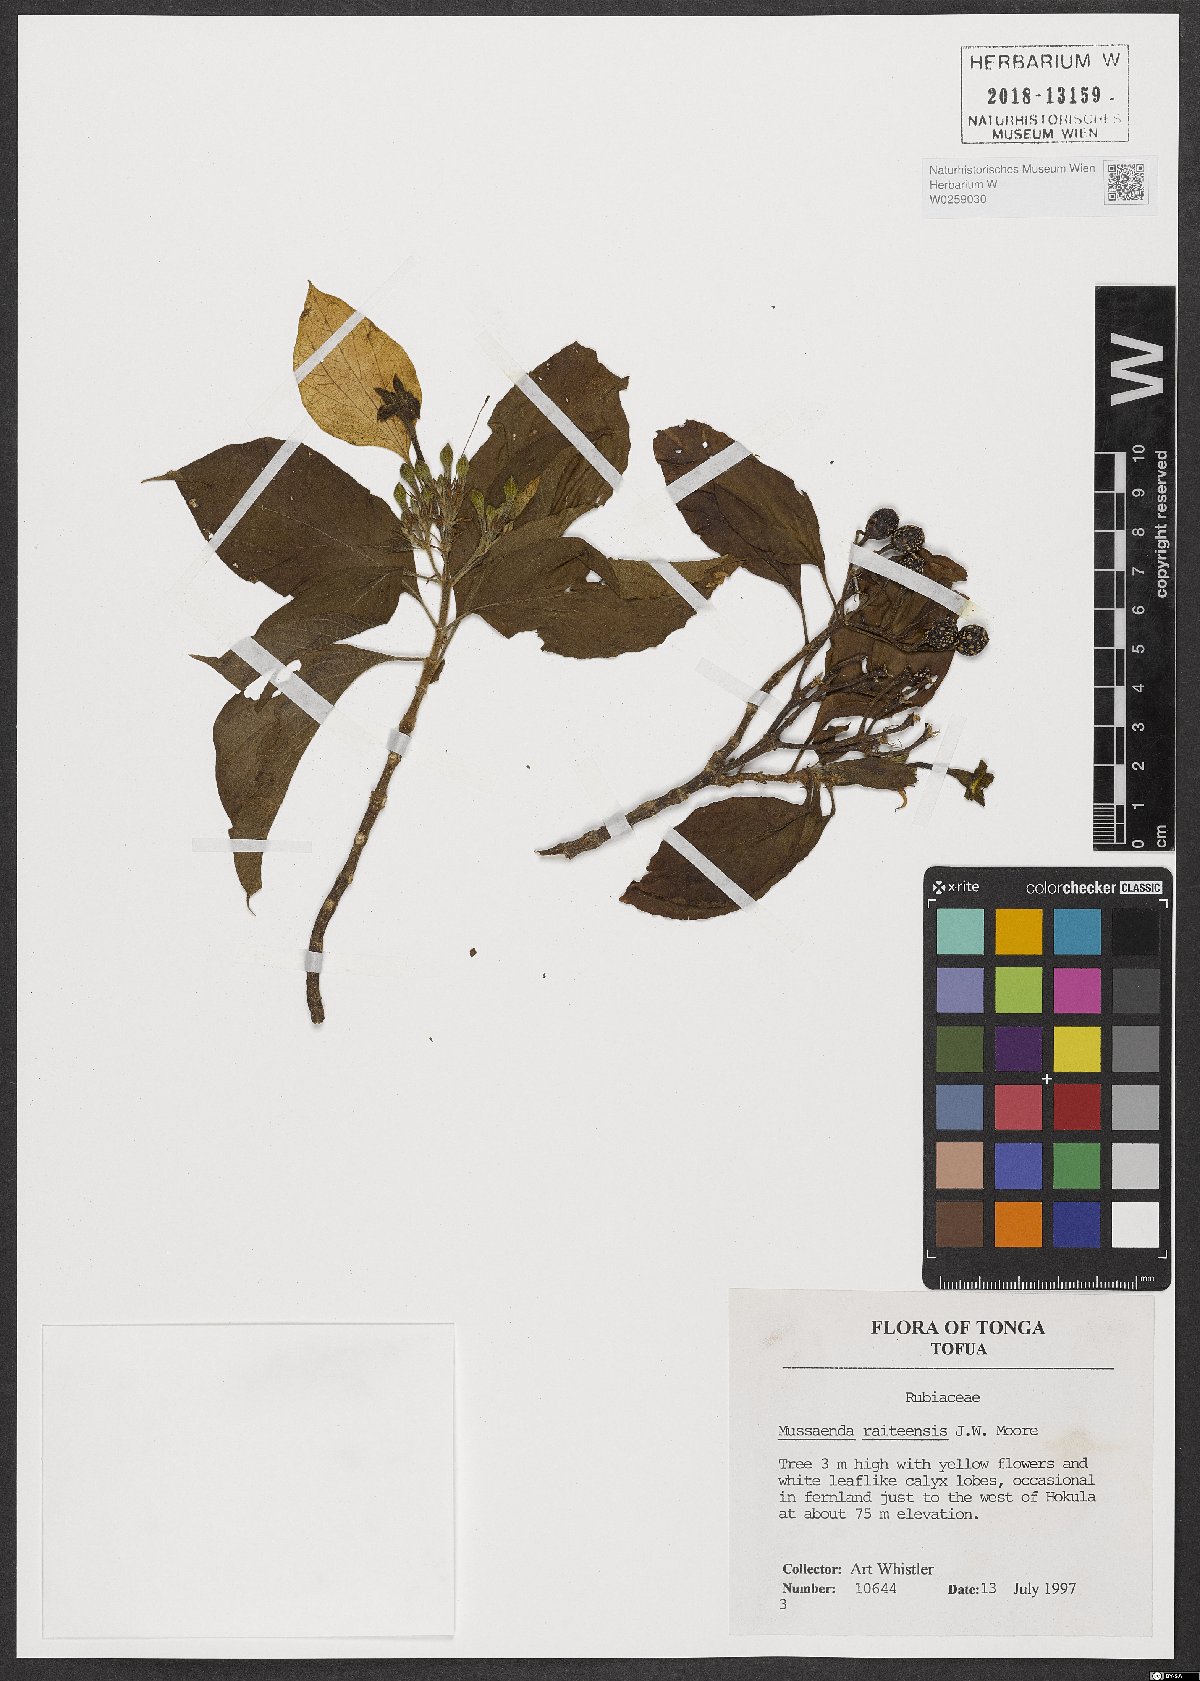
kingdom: Plantae
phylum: Tracheophyta
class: Magnoliopsida
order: Gentianales
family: Rubiaceae
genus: Mussaenda
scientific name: Mussaenda raiateensis
